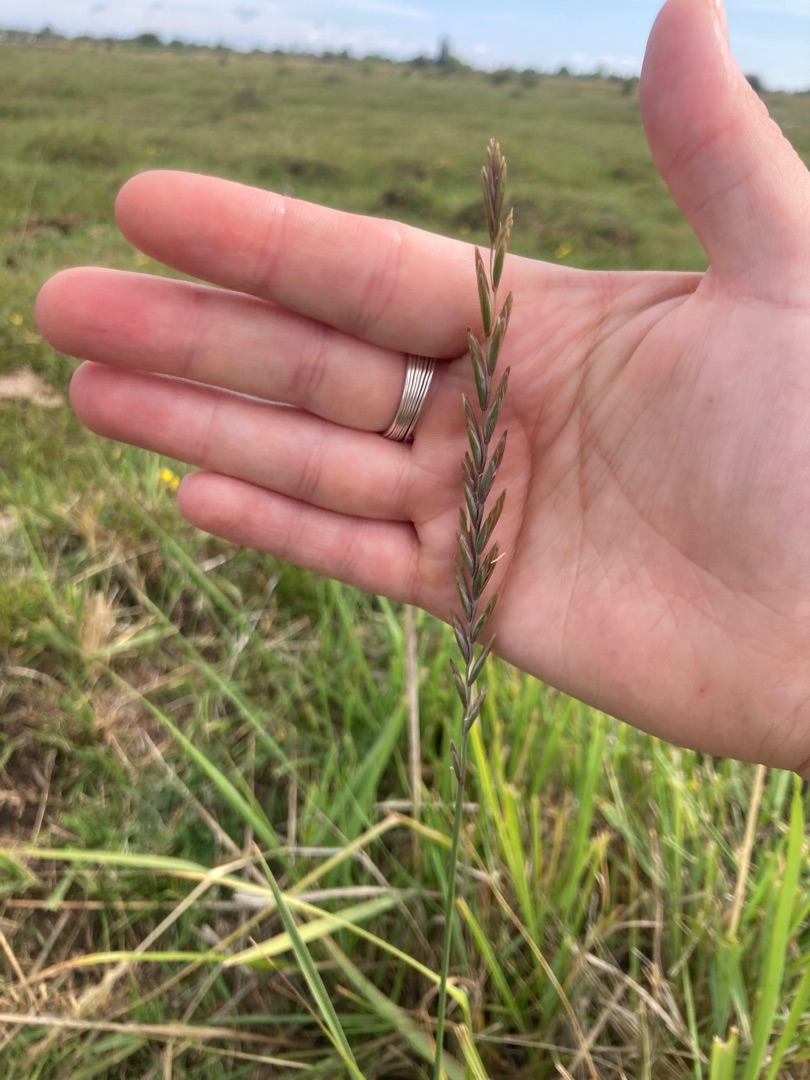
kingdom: Plantae
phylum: Tracheophyta
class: Liliopsida
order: Poales
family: Poaceae
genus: Elymus
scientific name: Elymus repens
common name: Almindelig kvik
